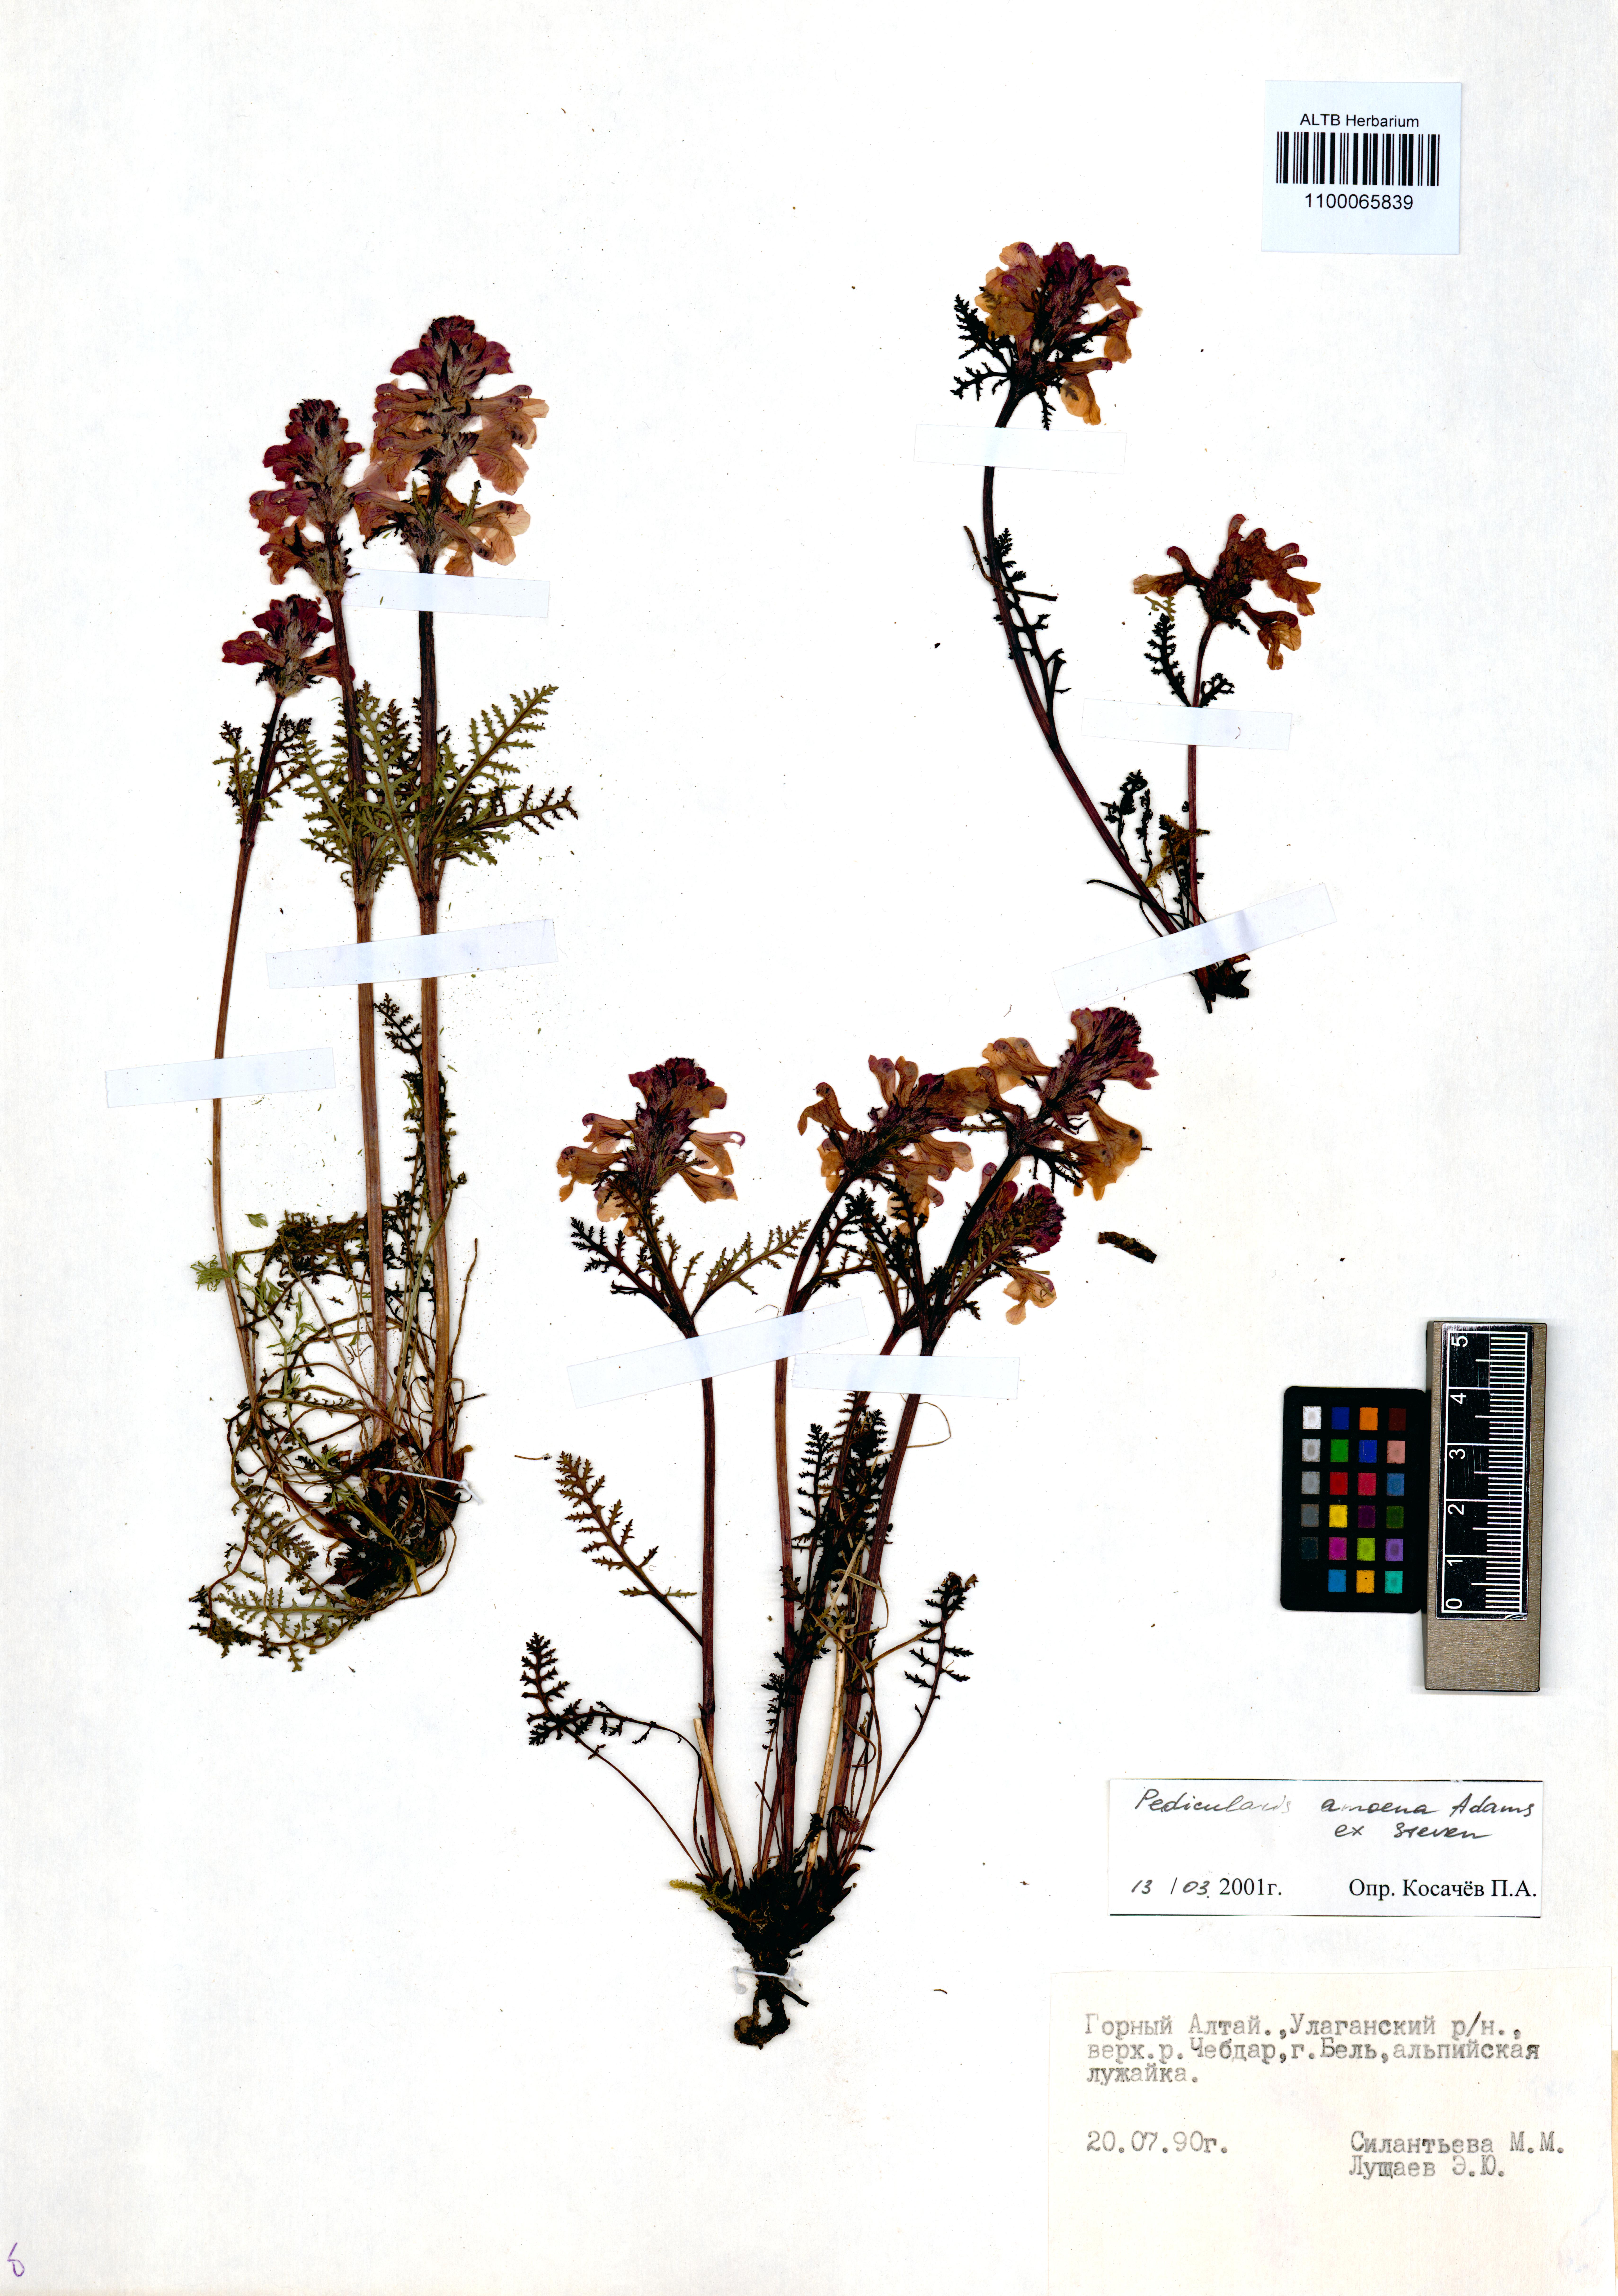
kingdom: Plantae
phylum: Tracheophyta
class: Magnoliopsida
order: Lamiales
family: Orobanchaceae
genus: Pedicularis
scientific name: Pedicularis amoena
